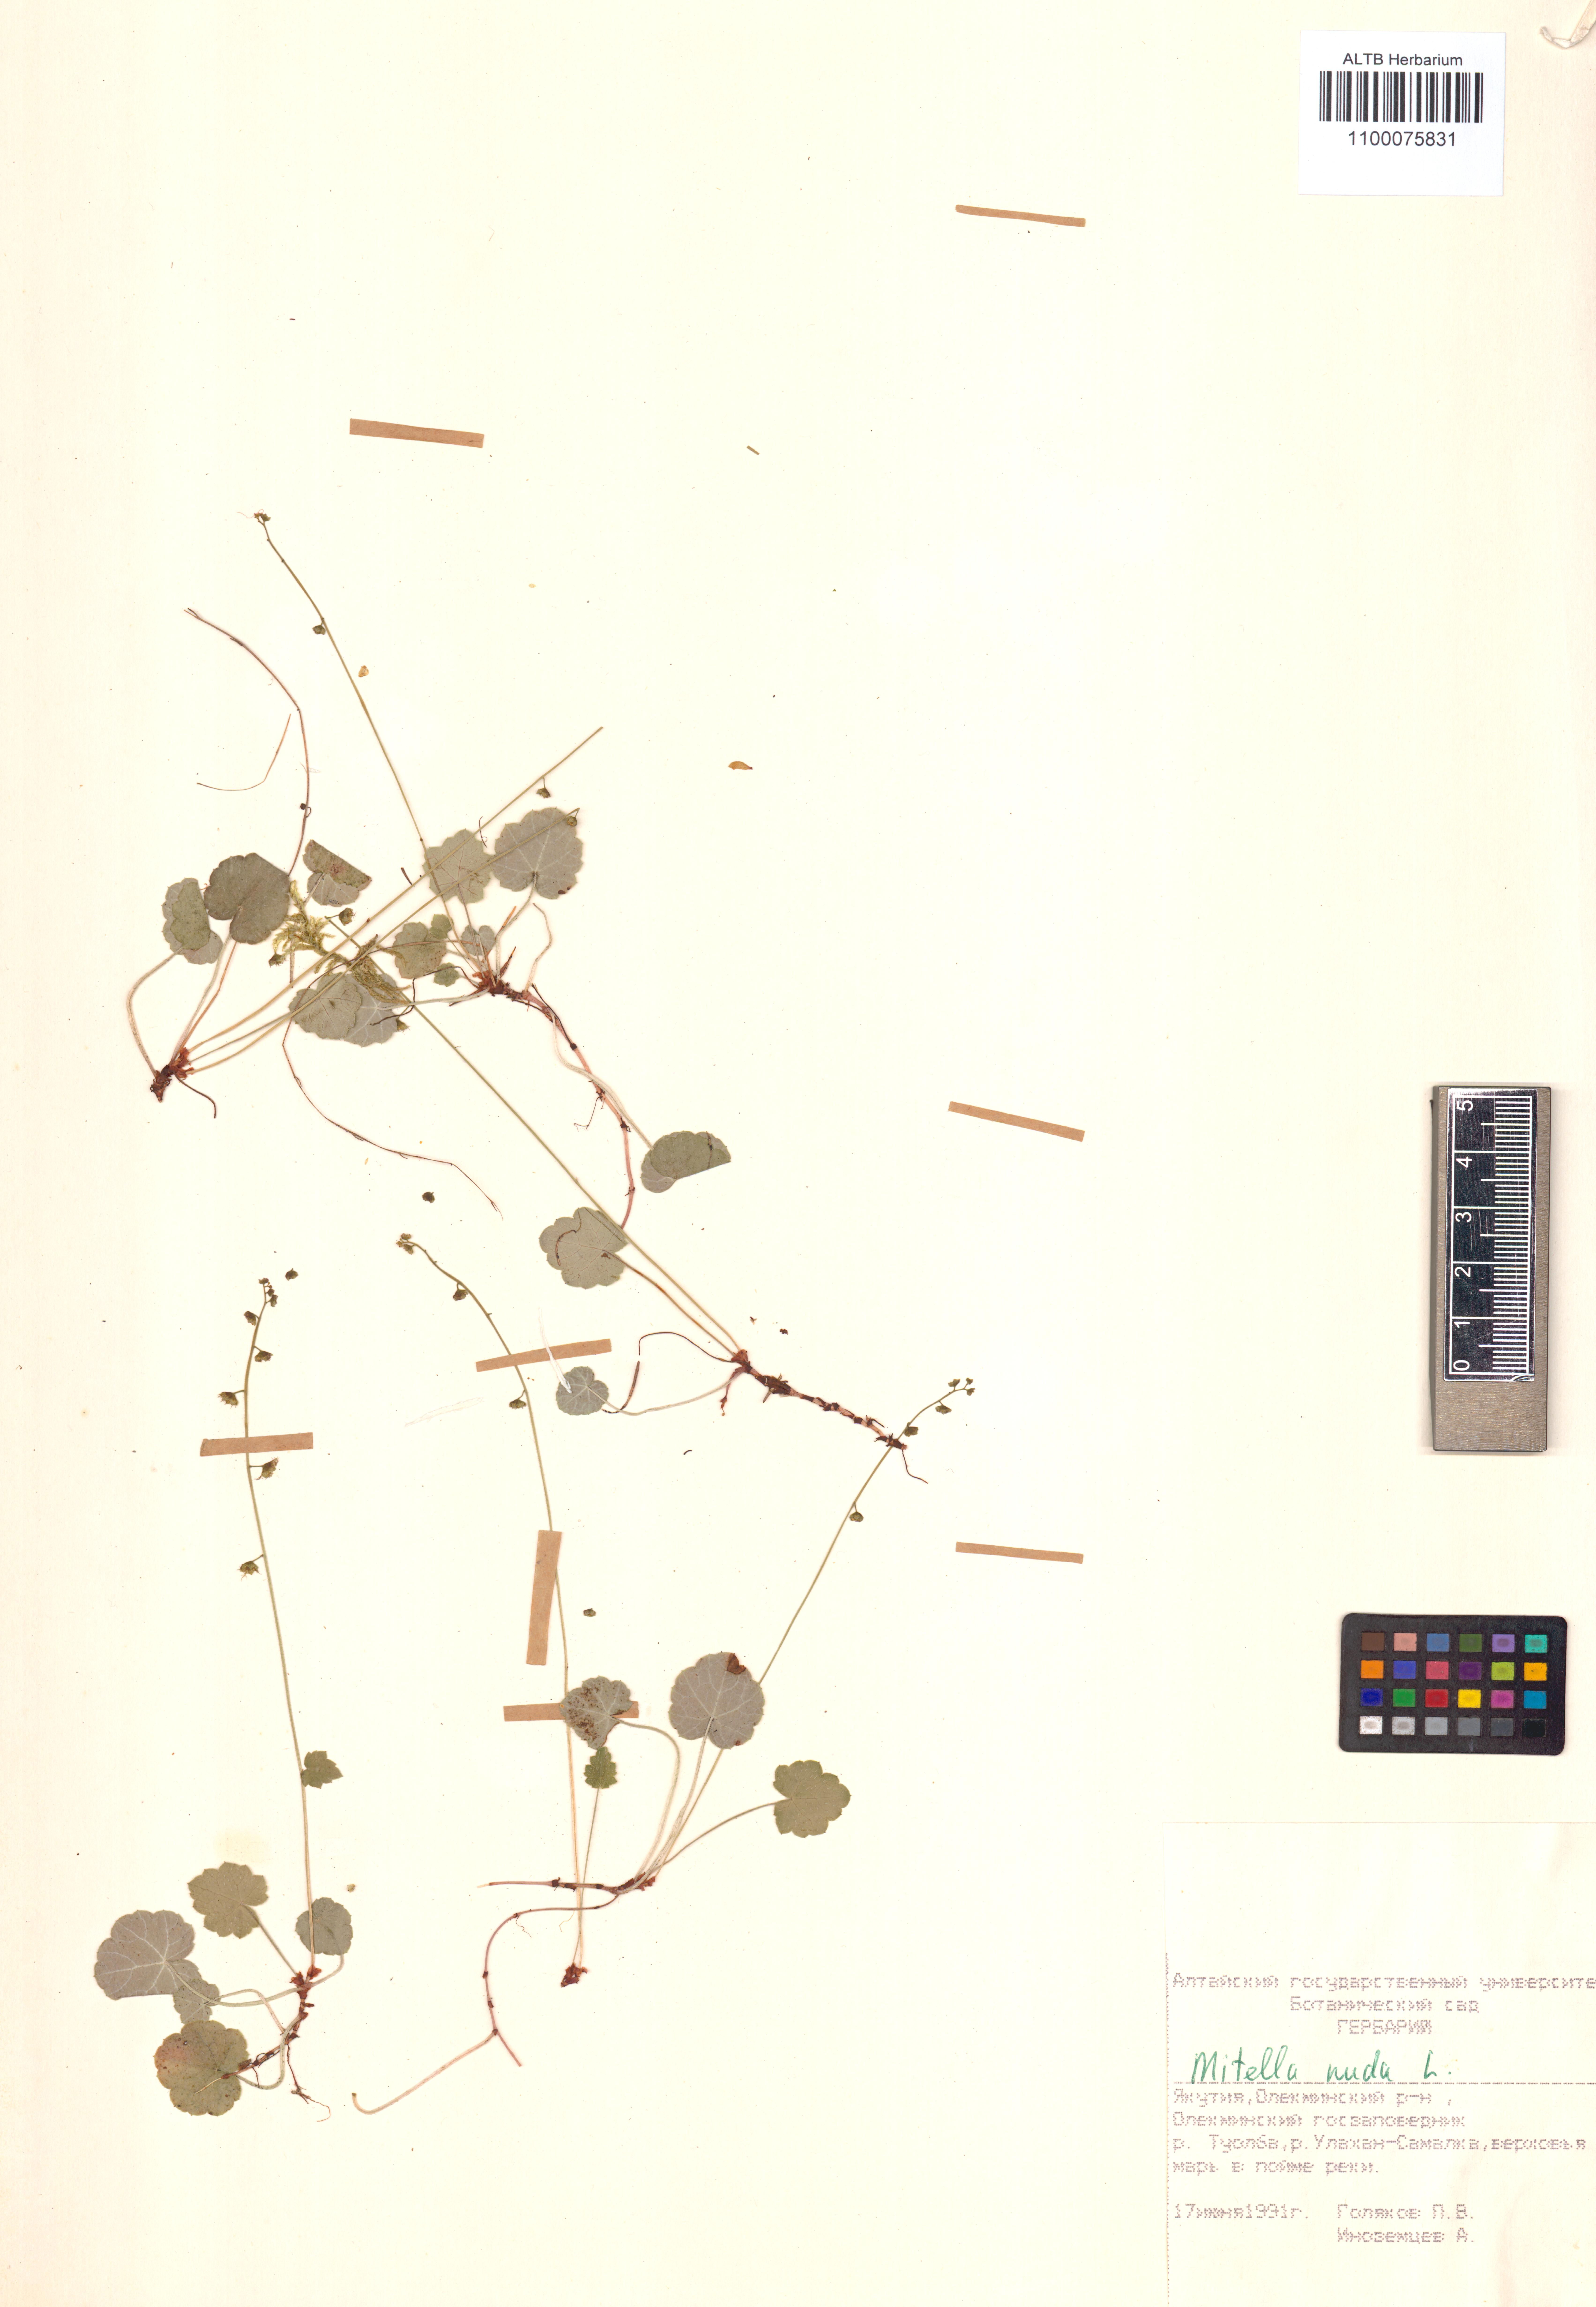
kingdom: Plantae
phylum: Tracheophyta
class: Magnoliopsida
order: Ericales
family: Primulaceae
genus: Lysimachia
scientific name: Lysimachia vulgaris
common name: Yellow loosestrife
